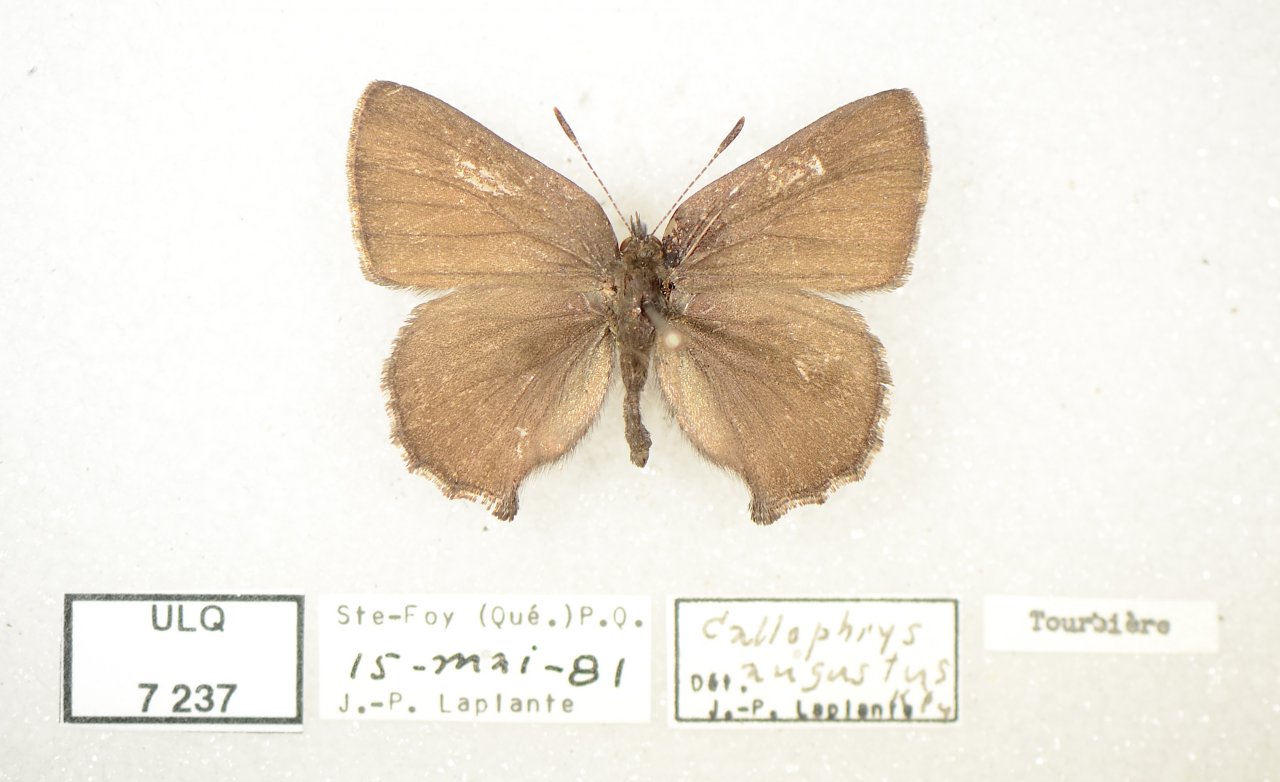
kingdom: Animalia
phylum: Arthropoda
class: Insecta
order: Lepidoptera
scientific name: Lepidoptera
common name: Butterflies
